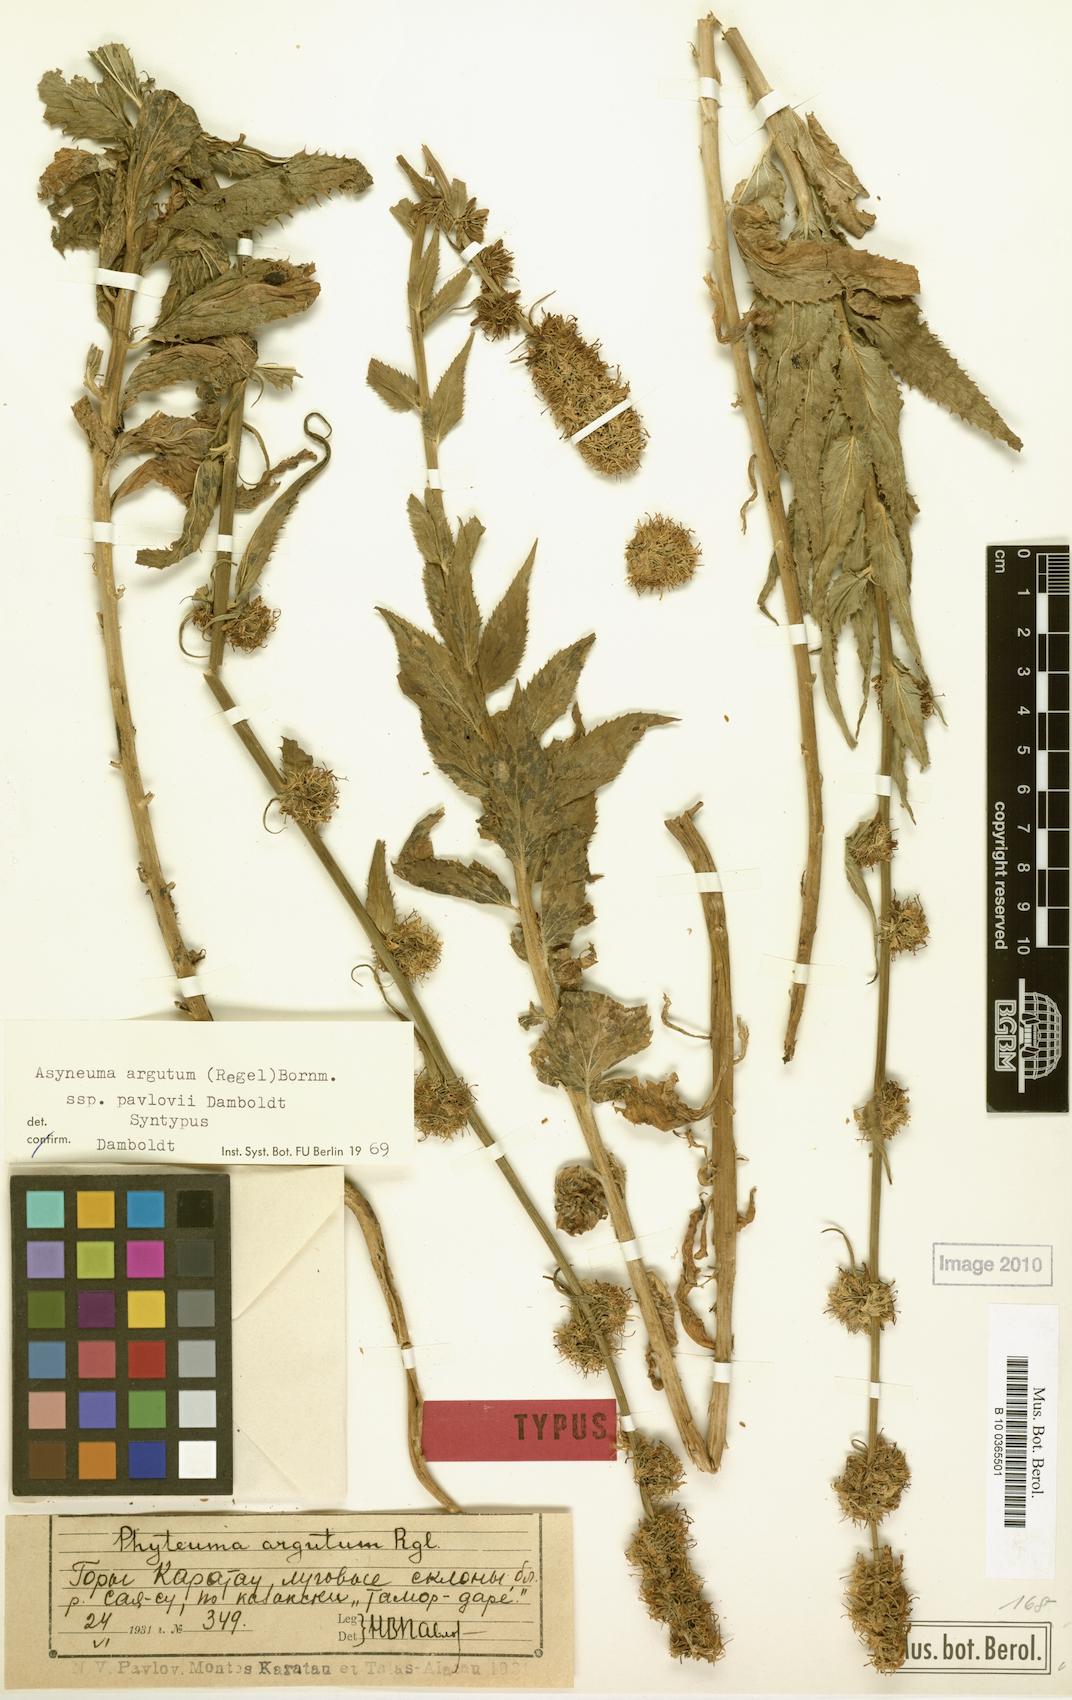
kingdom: Plantae
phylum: Tracheophyta
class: Magnoliopsida
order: Asterales
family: Campanulaceae
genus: Asyneuma
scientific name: Asyneuma argutum
